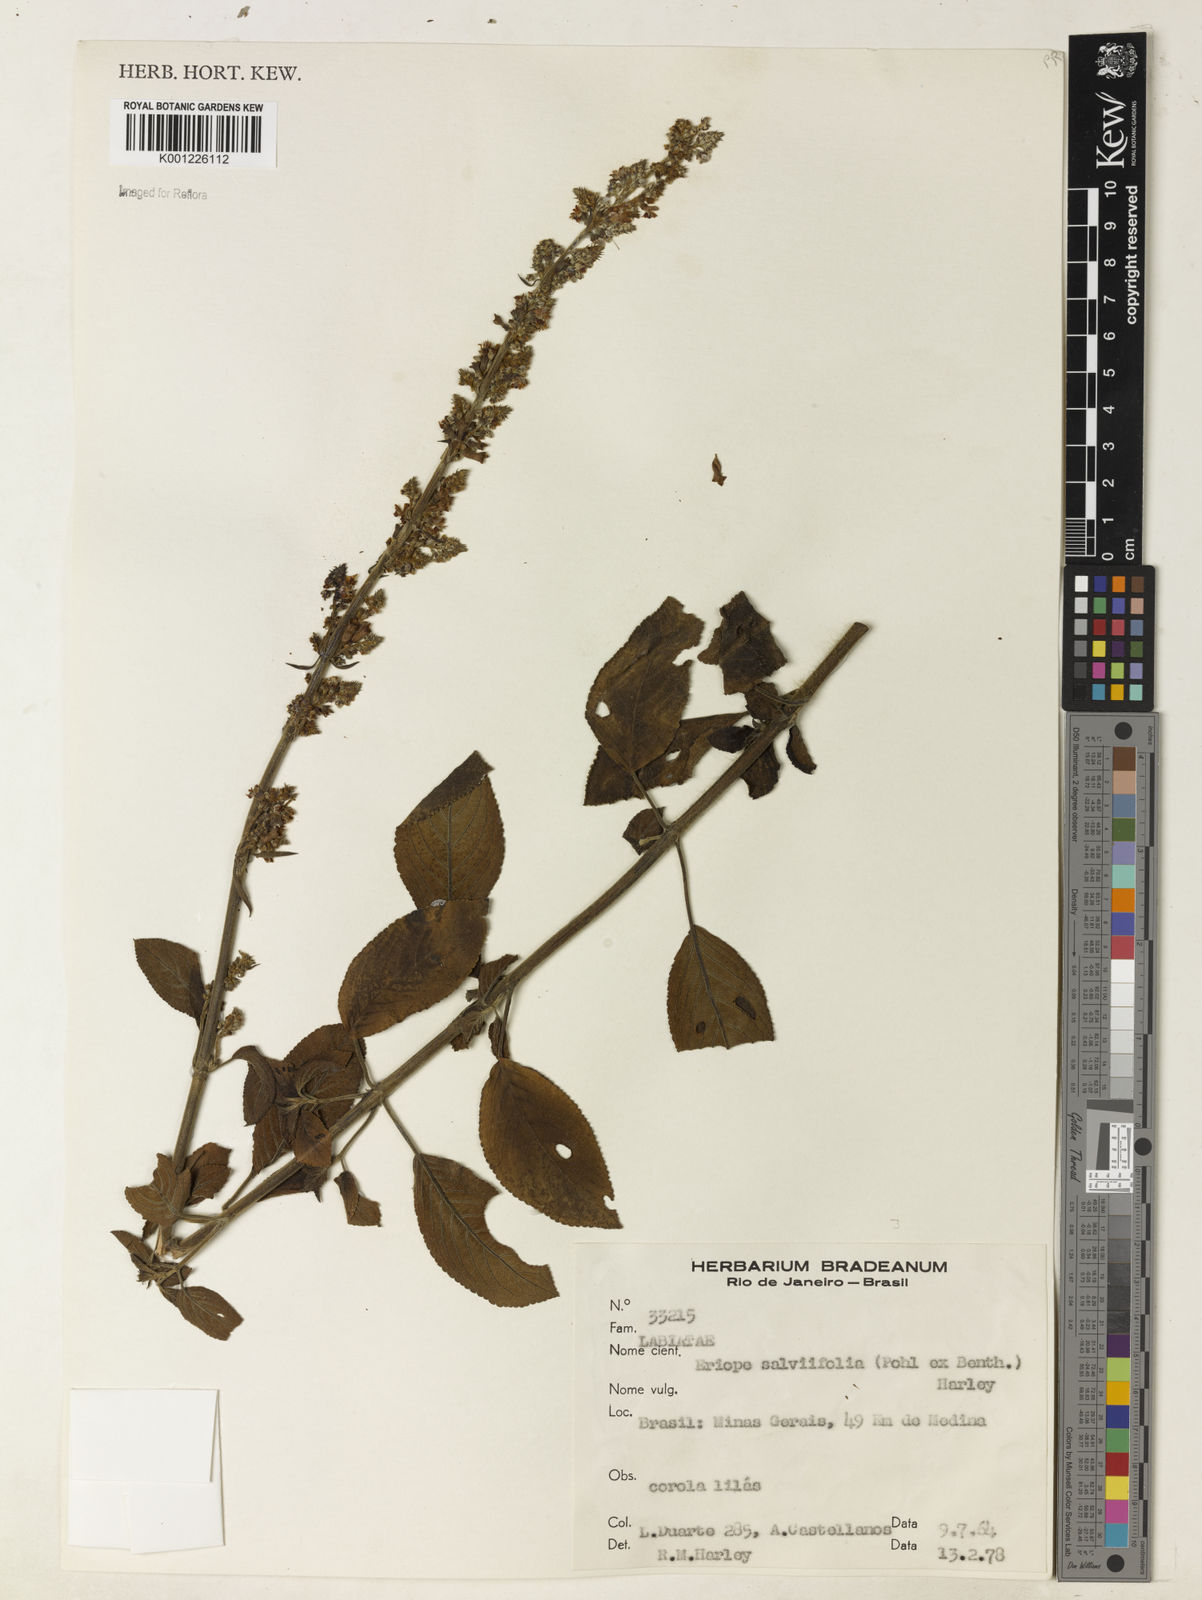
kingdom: Plantae
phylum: Tracheophyta
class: Magnoliopsida
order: Lamiales
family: Lamiaceae
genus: Eriope
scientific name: Eriope salviifolia
